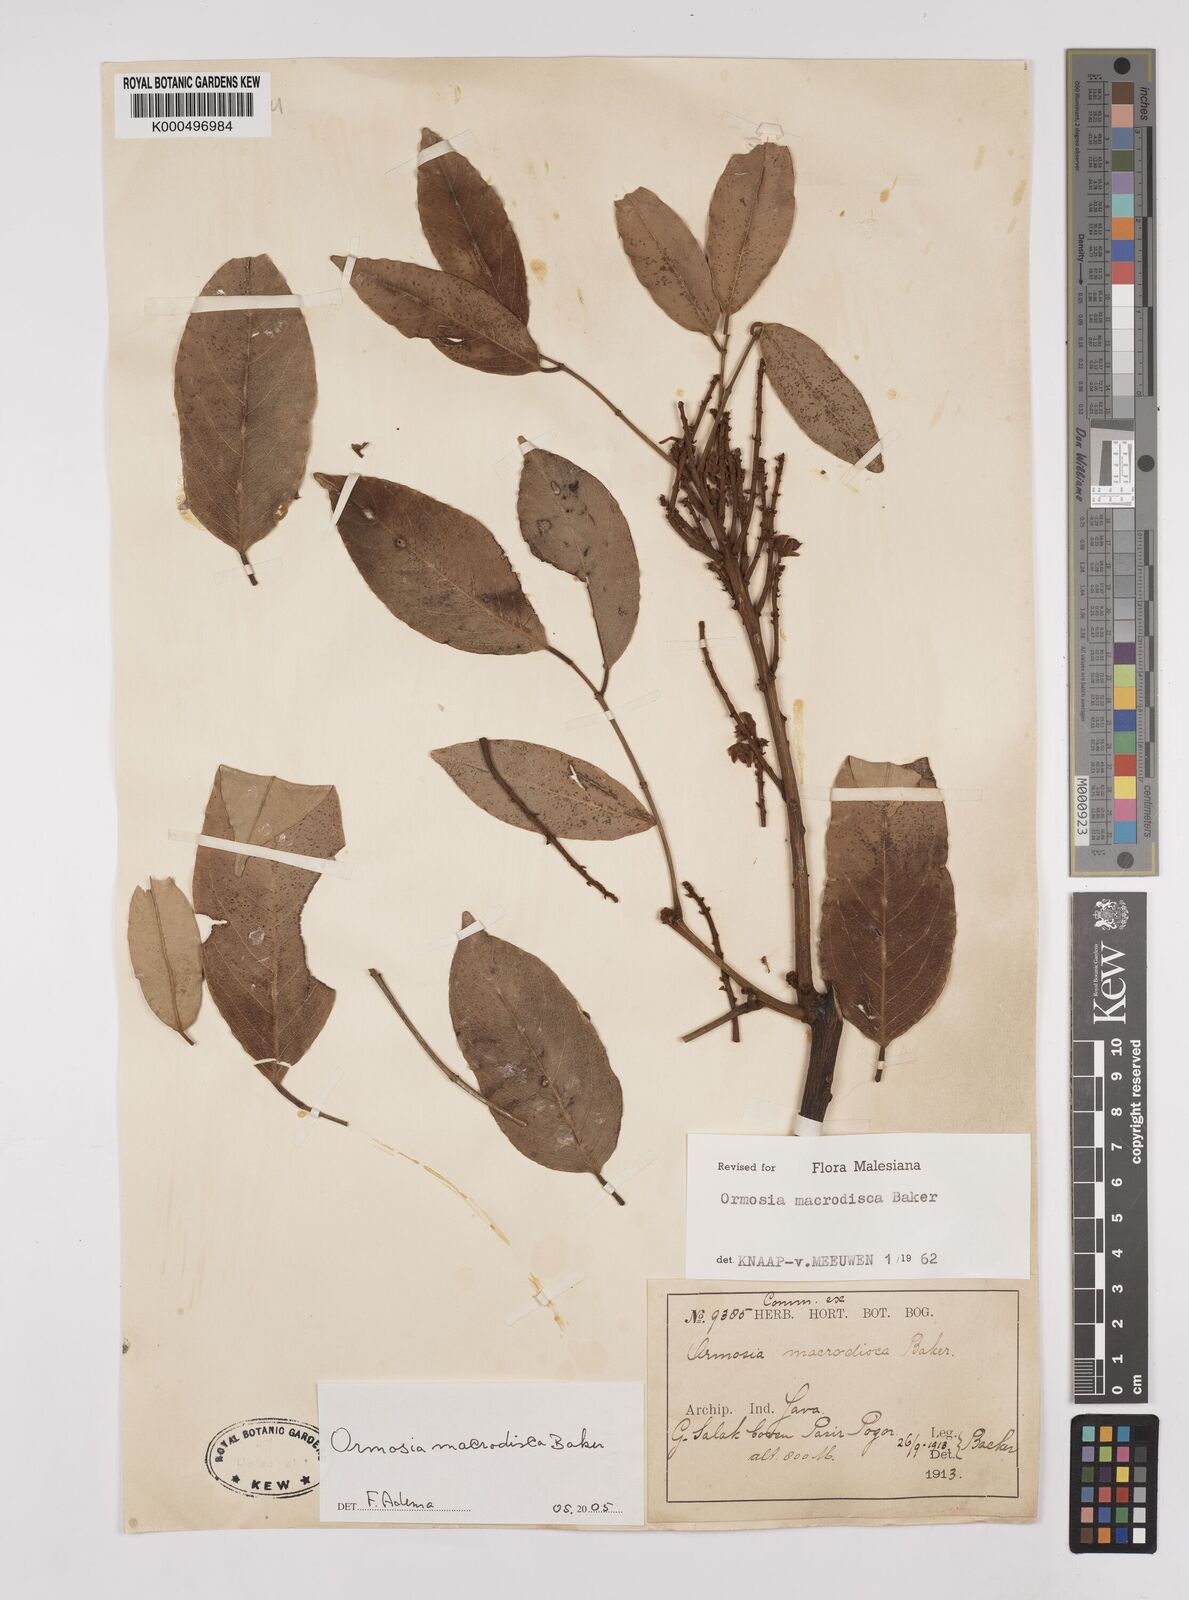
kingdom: Plantae
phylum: Tracheophyta
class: Magnoliopsida
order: Fabales
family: Fabaceae
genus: Ormosia
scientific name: Ormosia macrodisca
